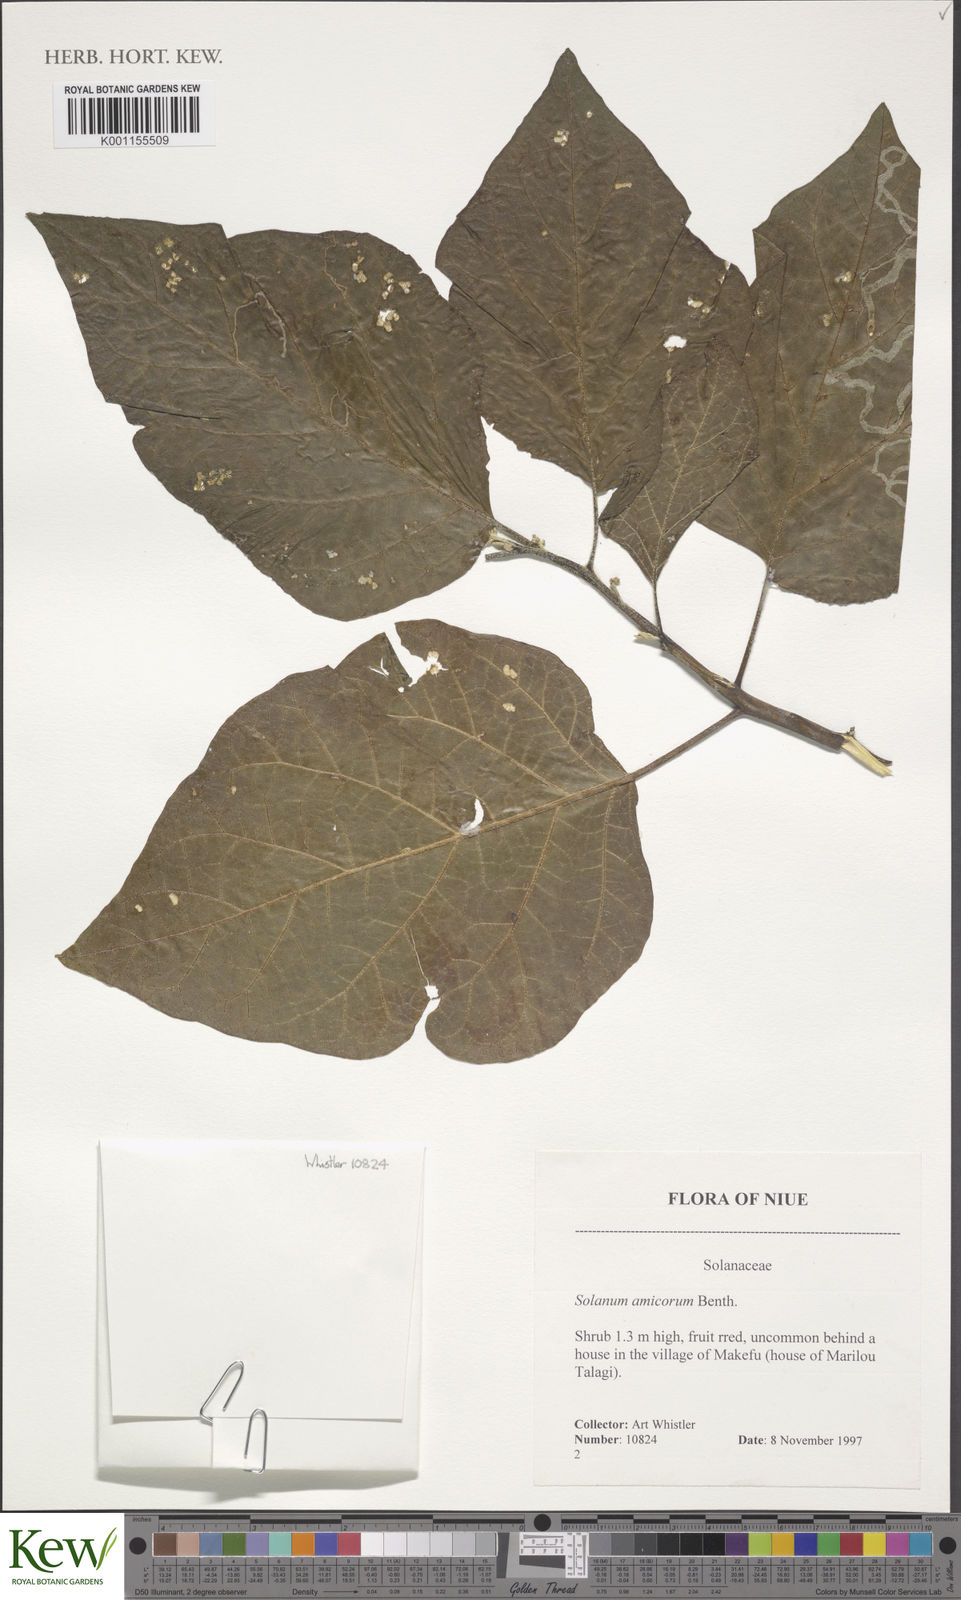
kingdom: Plantae
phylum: Tracheophyta
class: Magnoliopsida
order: Solanales
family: Solanaceae
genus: Solanum
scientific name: Solanum amicorum
